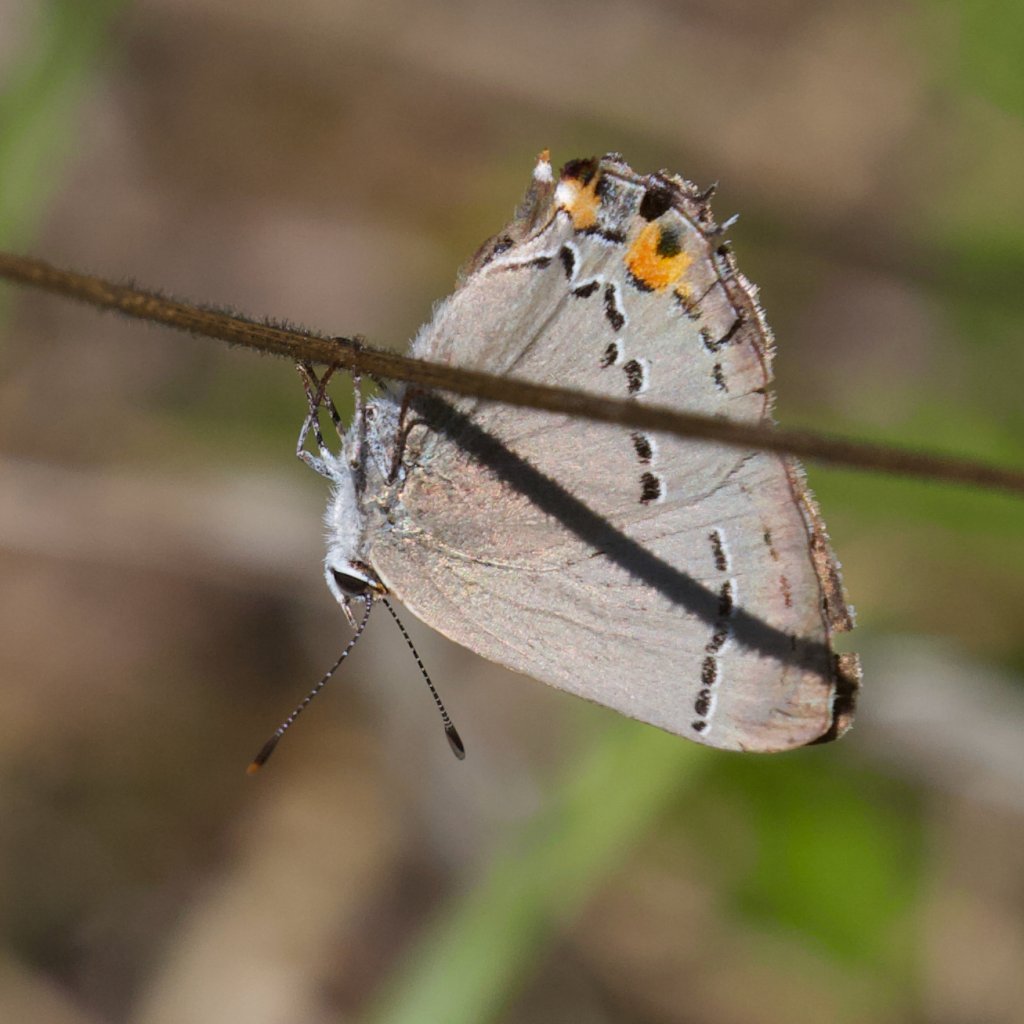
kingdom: Animalia
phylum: Arthropoda
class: Insecta
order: Lepidoptera
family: Lycaenidae
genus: Strymon
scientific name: Strymon melinus
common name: Gray Hairstreak
